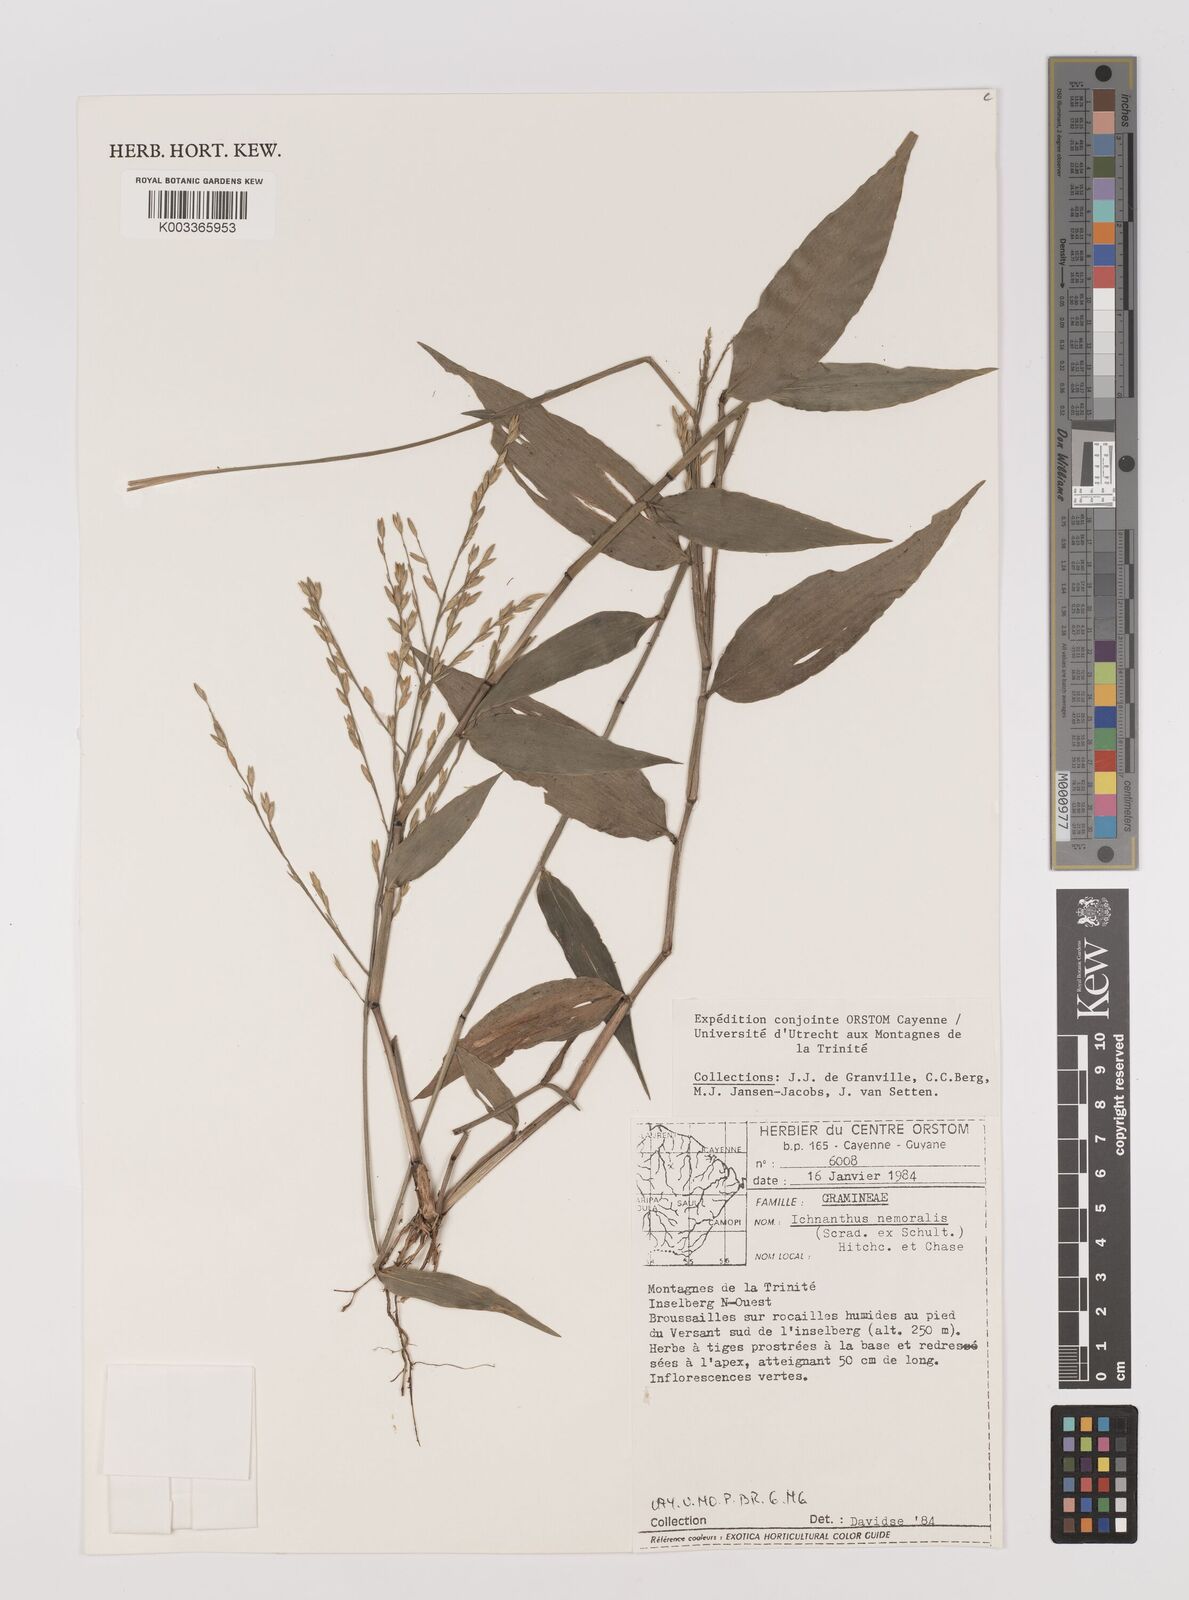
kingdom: Plantae
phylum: Tracheophyta
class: Liliopsida
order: Poales
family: Poaceae
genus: Ichnanthus
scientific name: Ichnanthus nemoralis
